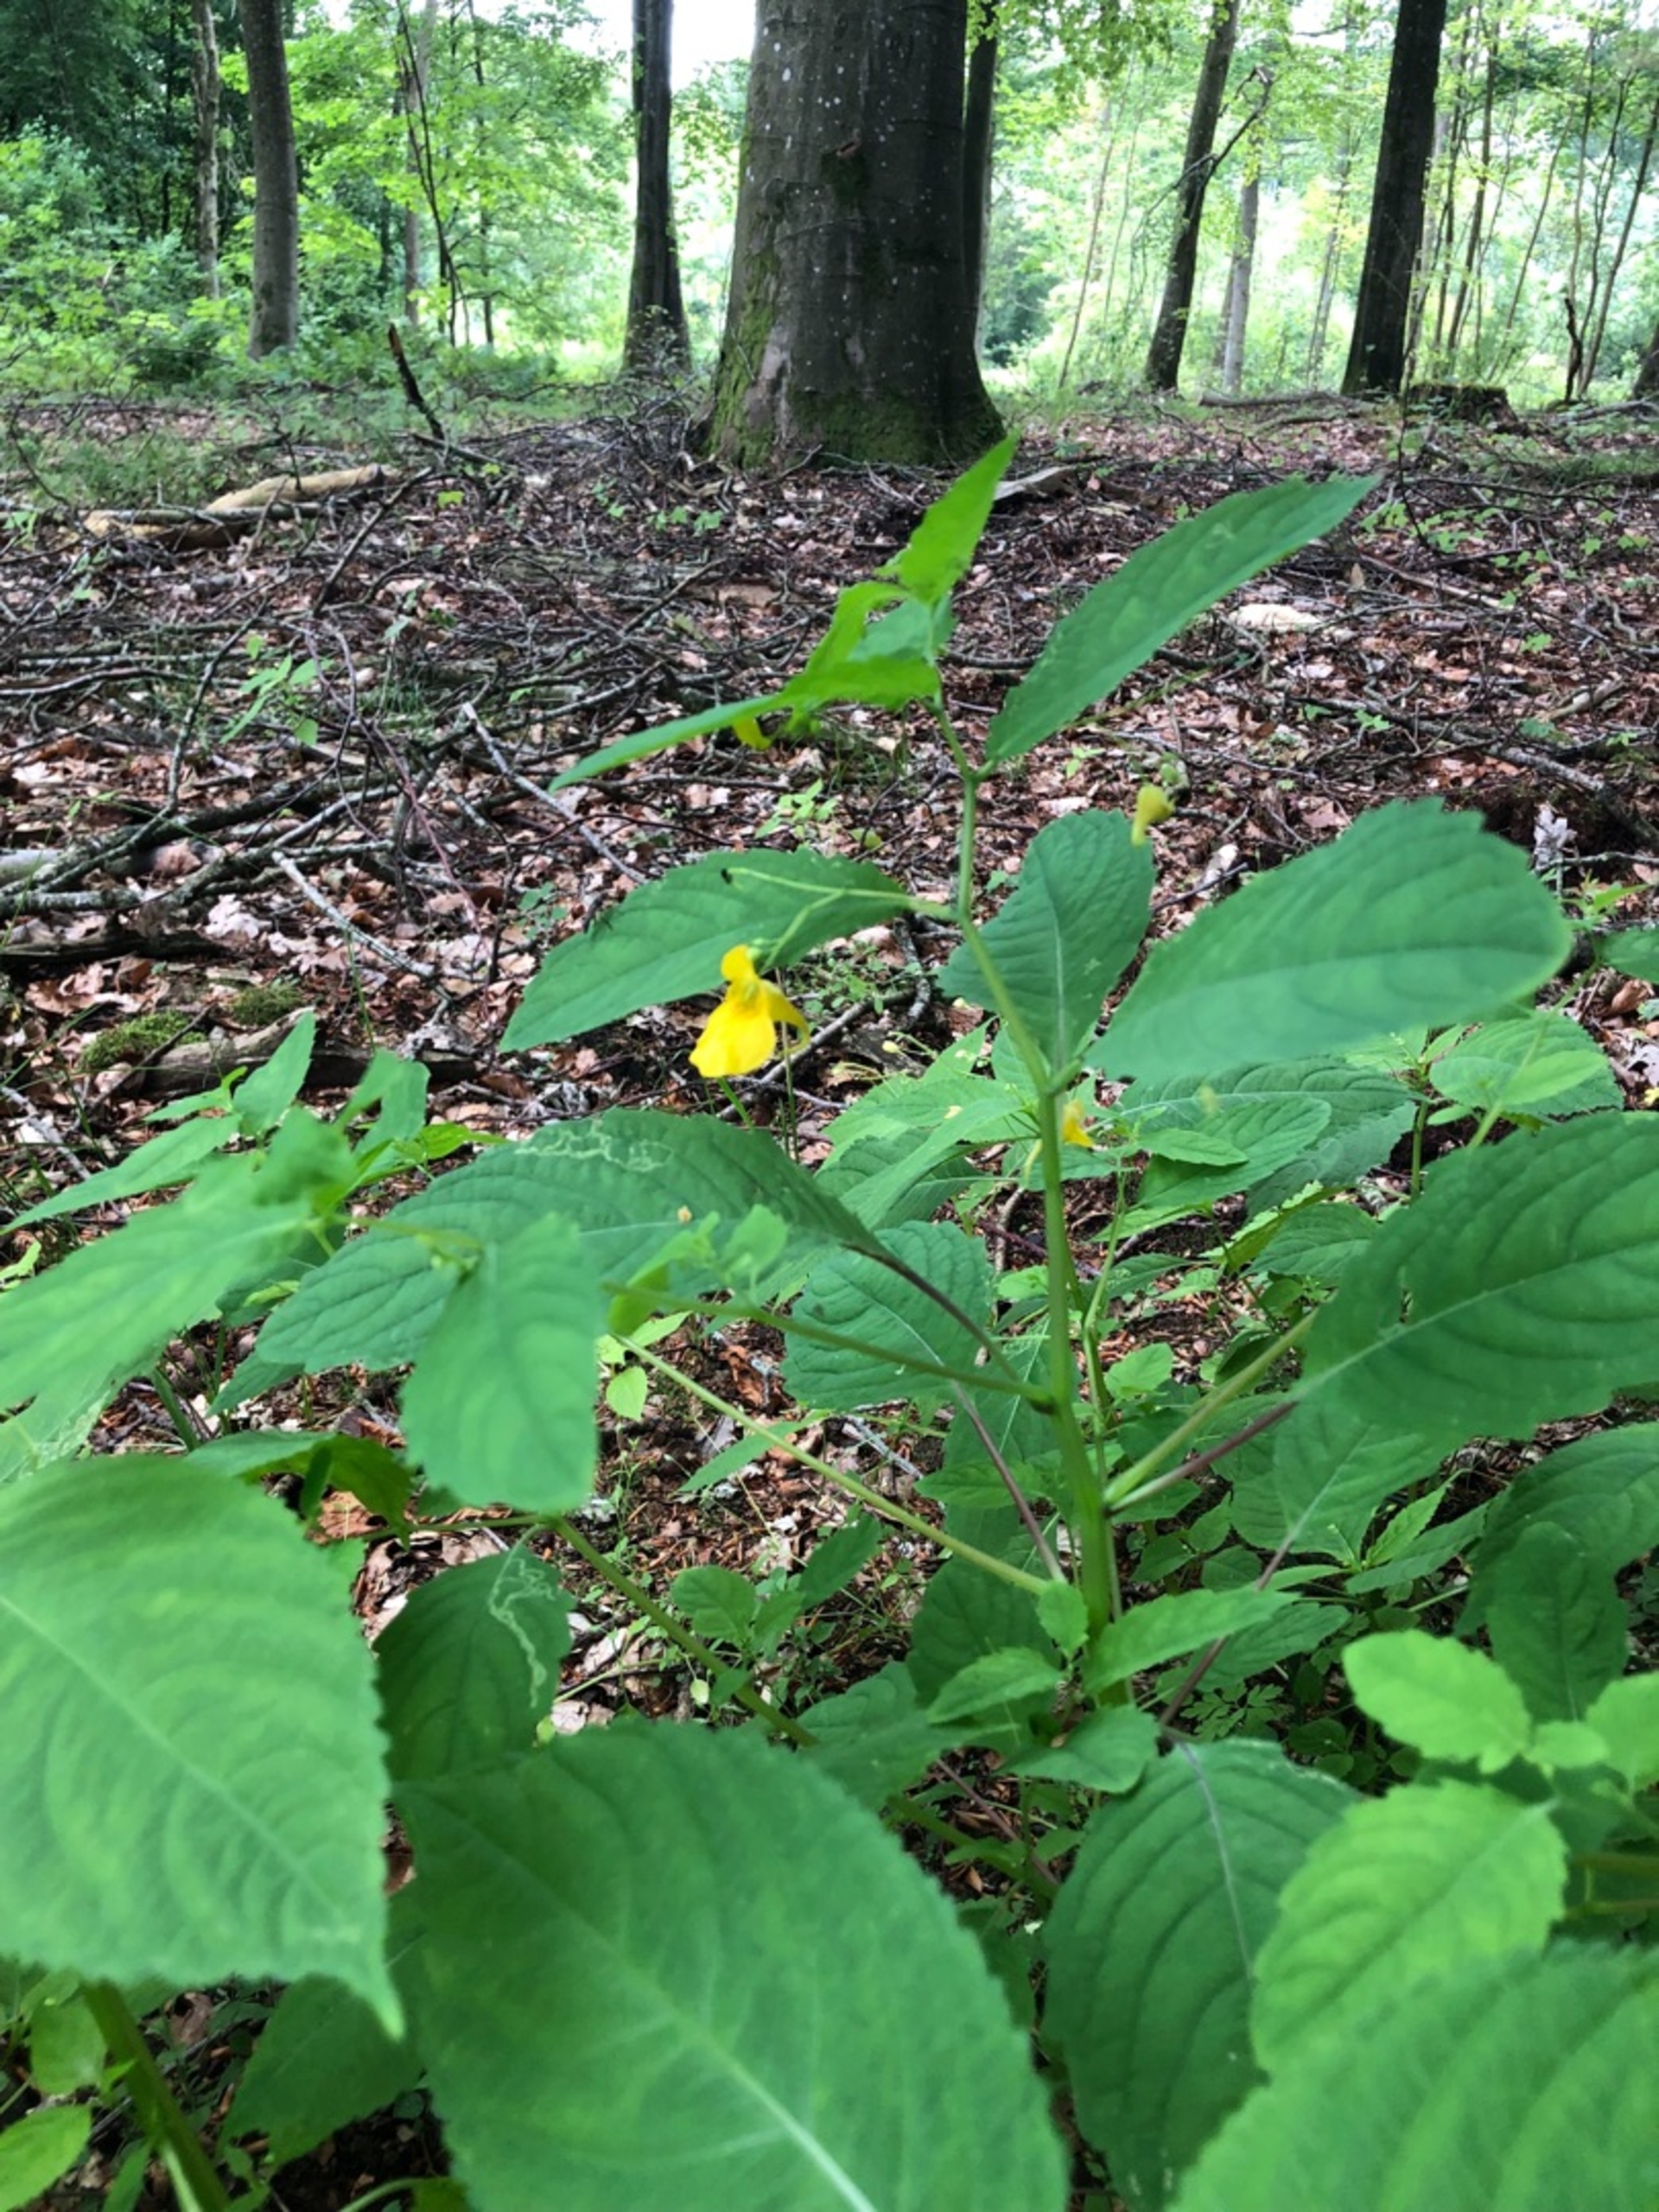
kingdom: Plantae
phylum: Tracheophyta
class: Magnoliopsida
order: Ericales
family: Balsaminaceae
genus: Impatiens
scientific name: Impatiens noli-tangere
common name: Spring-balsamin
